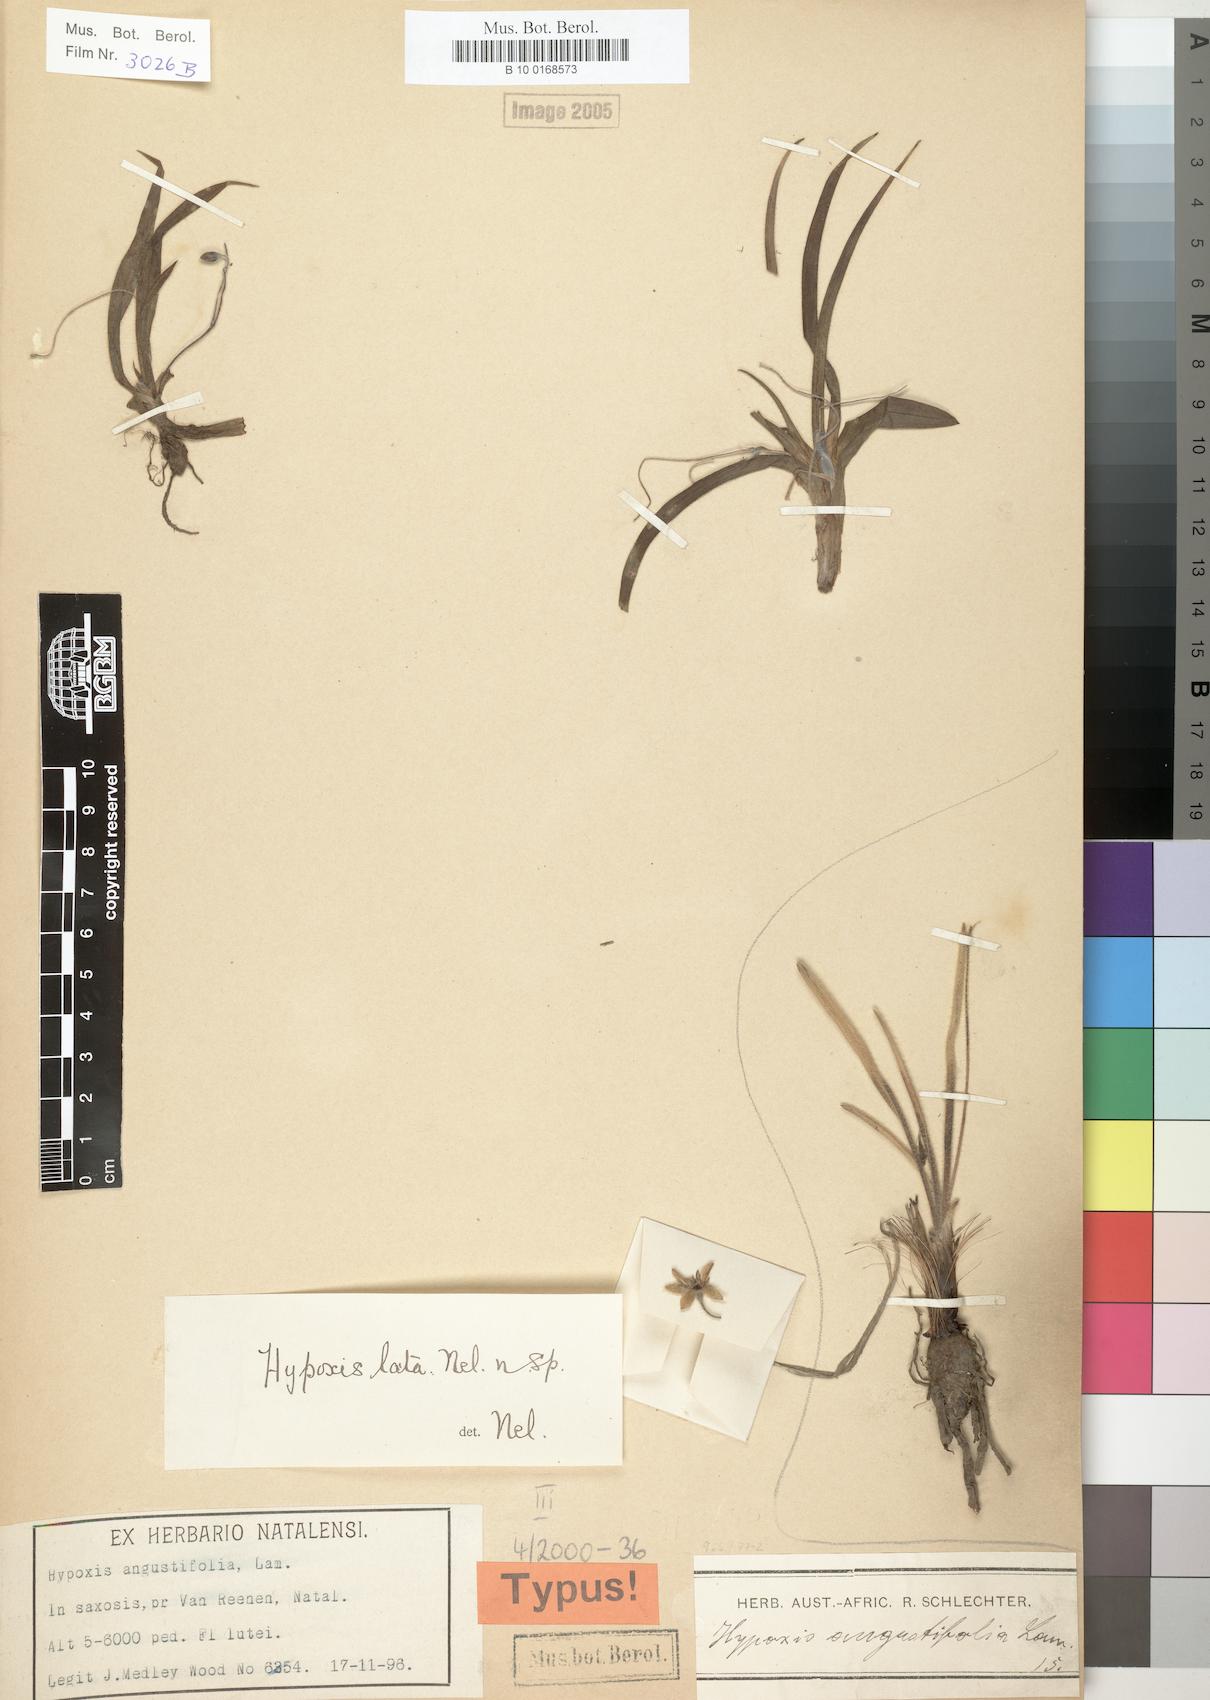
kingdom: Plantae
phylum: Tracheophyta
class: Liliopsida
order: Asparagales
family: Hypoxidaceae
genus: Hypoxis
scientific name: Hypoxis lata
